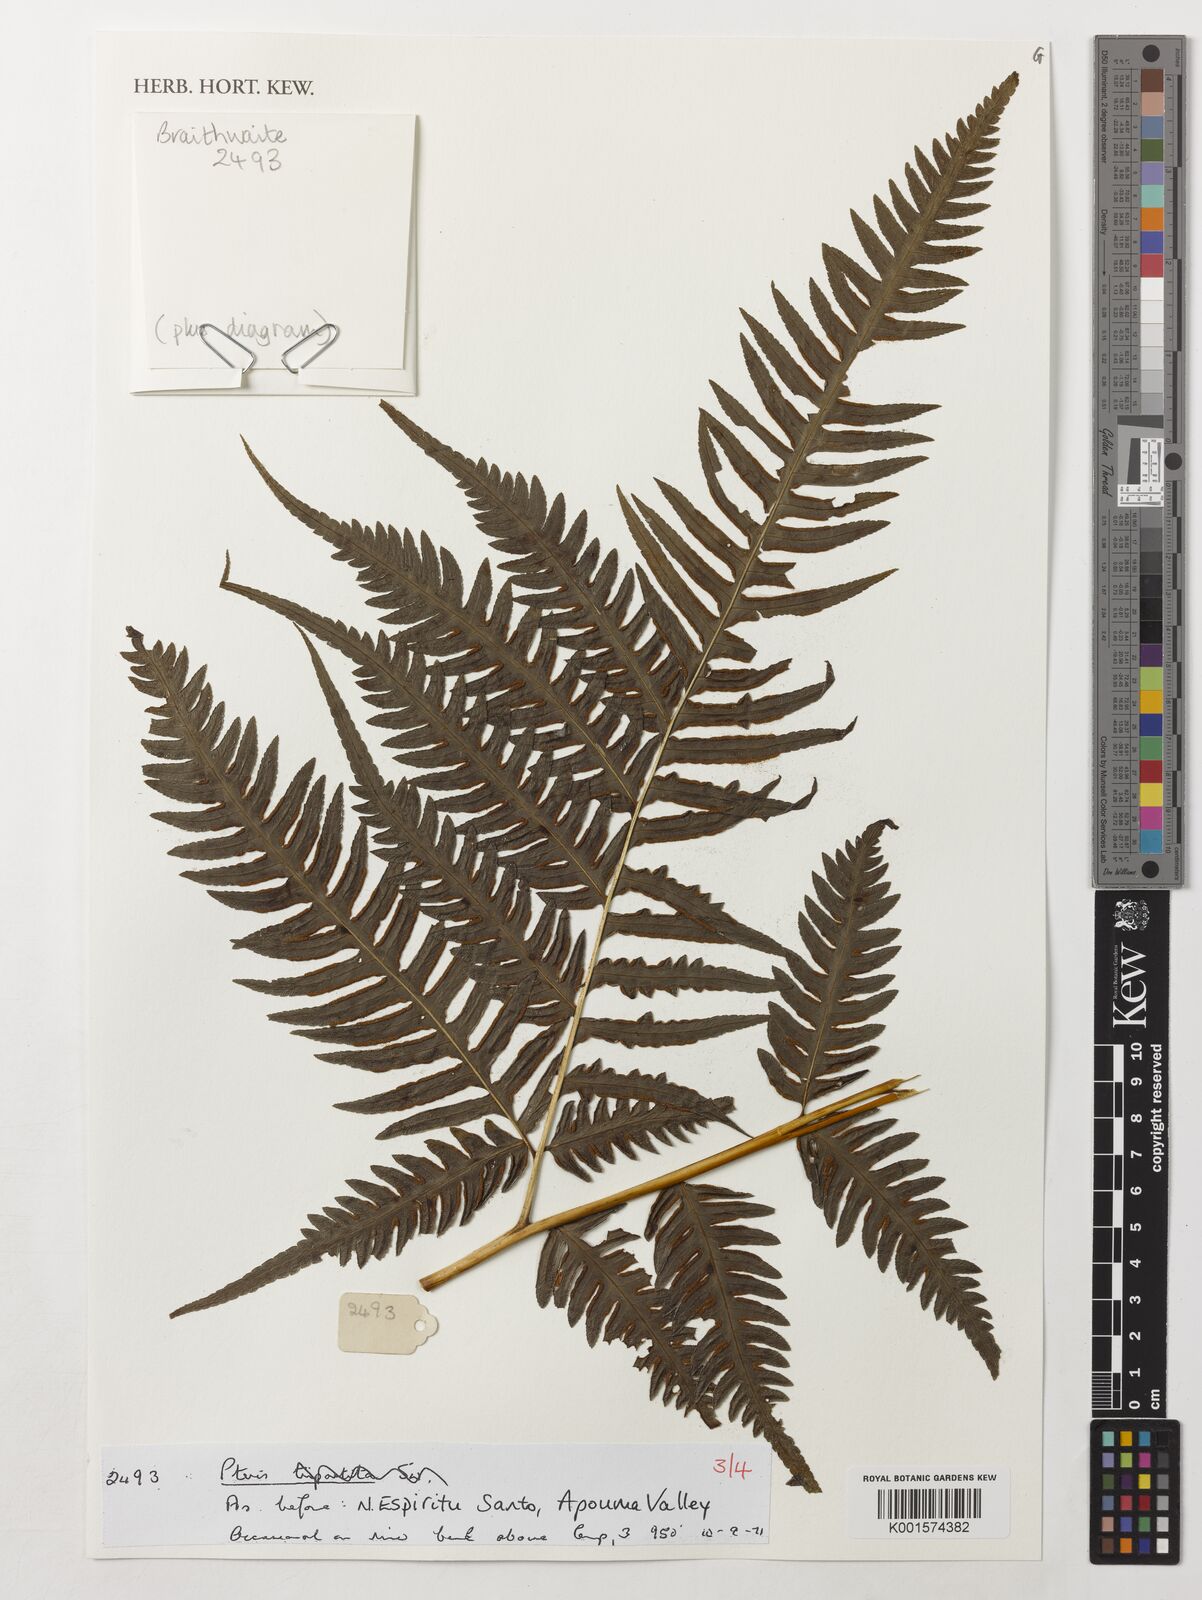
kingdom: Plantae
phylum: Tracheophyta
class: Polypodiopsida
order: Polypodiales
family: Pteridaceae
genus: Pteris
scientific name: Pteris
